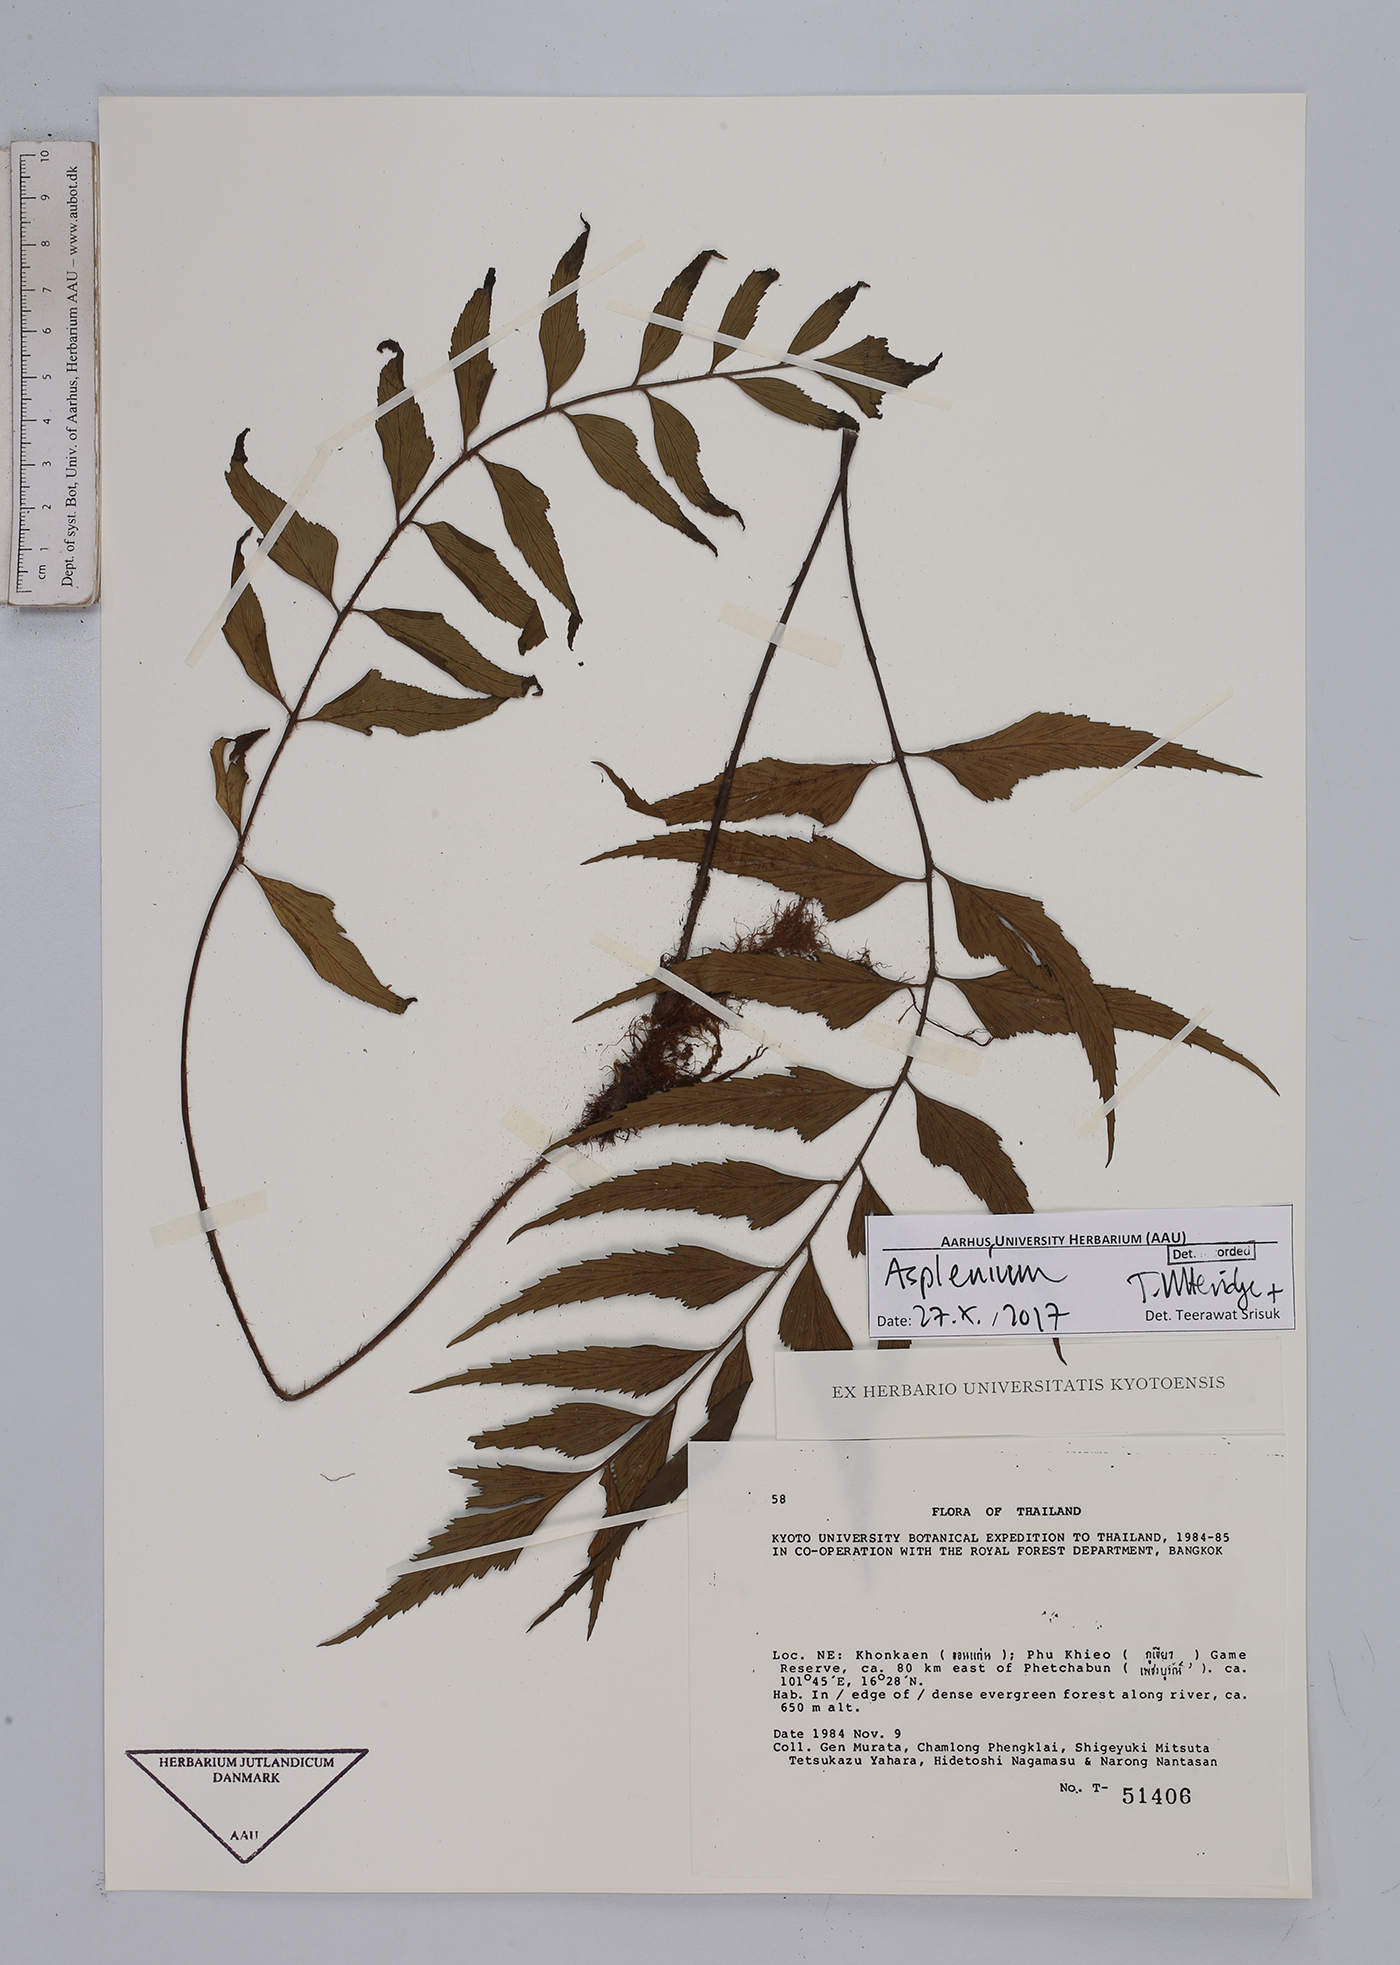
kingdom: Plantae
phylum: Tracheophyta
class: Polypodiopsida
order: Polypodiales
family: Aspleniaceae
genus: Asplenium
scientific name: Asplenium
